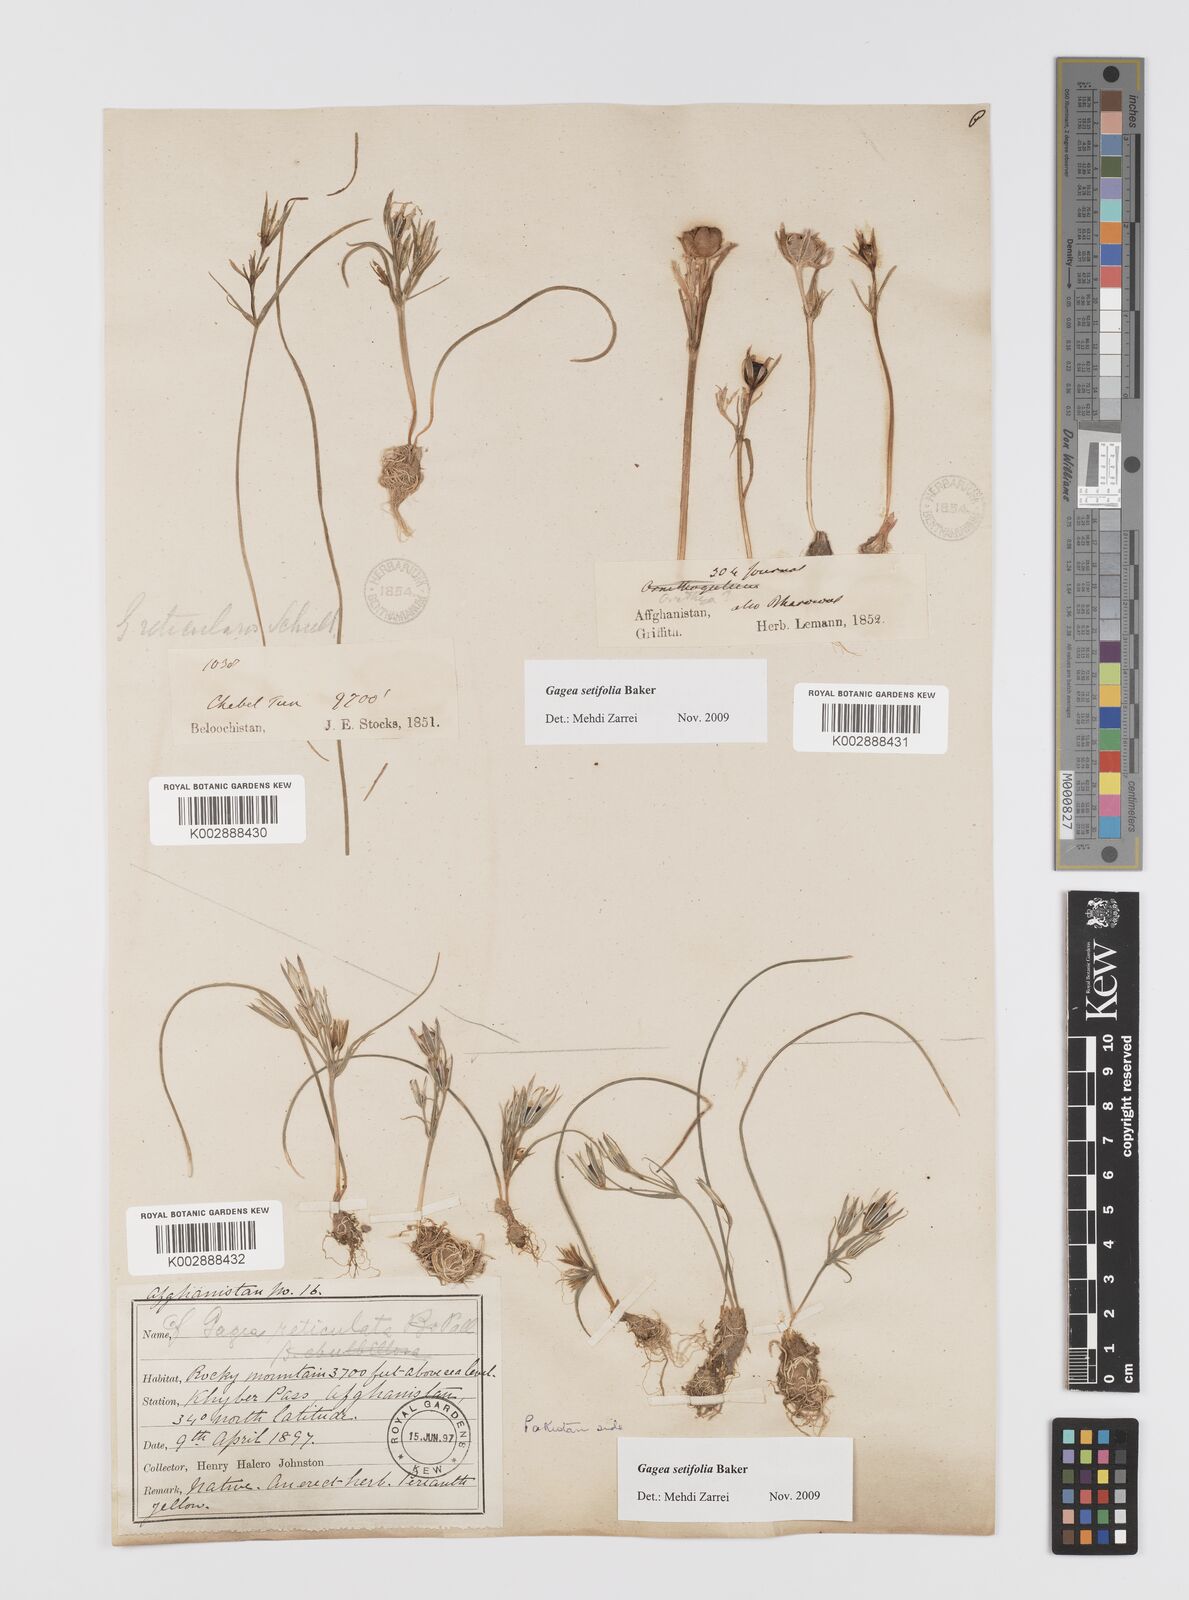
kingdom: Plantae
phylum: Tracheophyta
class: Liliopsida
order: Liliales
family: Liliaceae
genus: Gagea
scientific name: Gagea setifolia
